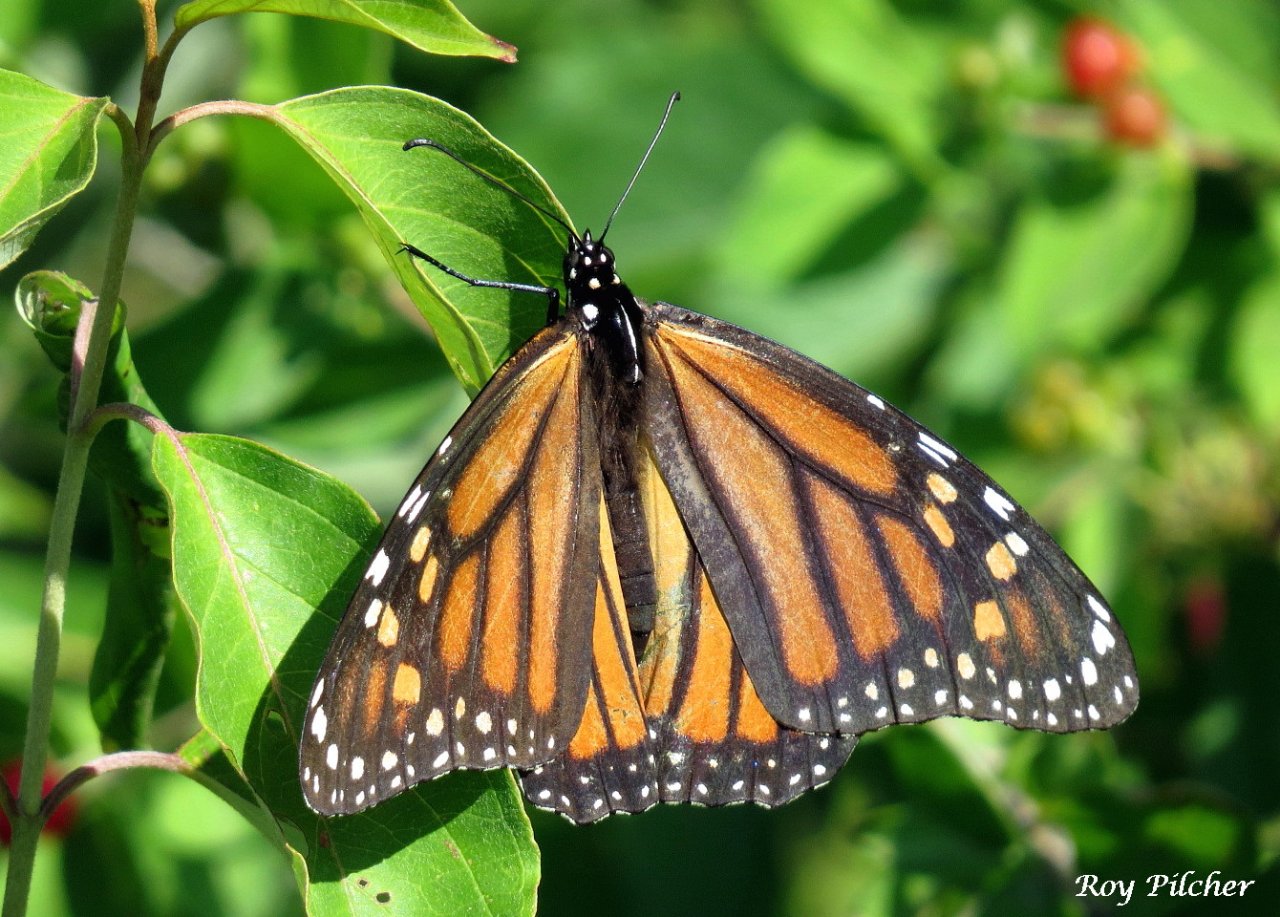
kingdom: Animalia
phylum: Arthropoda
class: Insecta
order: Lepidoptera
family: Nymphalidae
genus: Danaus
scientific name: Danaus plexippus
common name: Monarch
